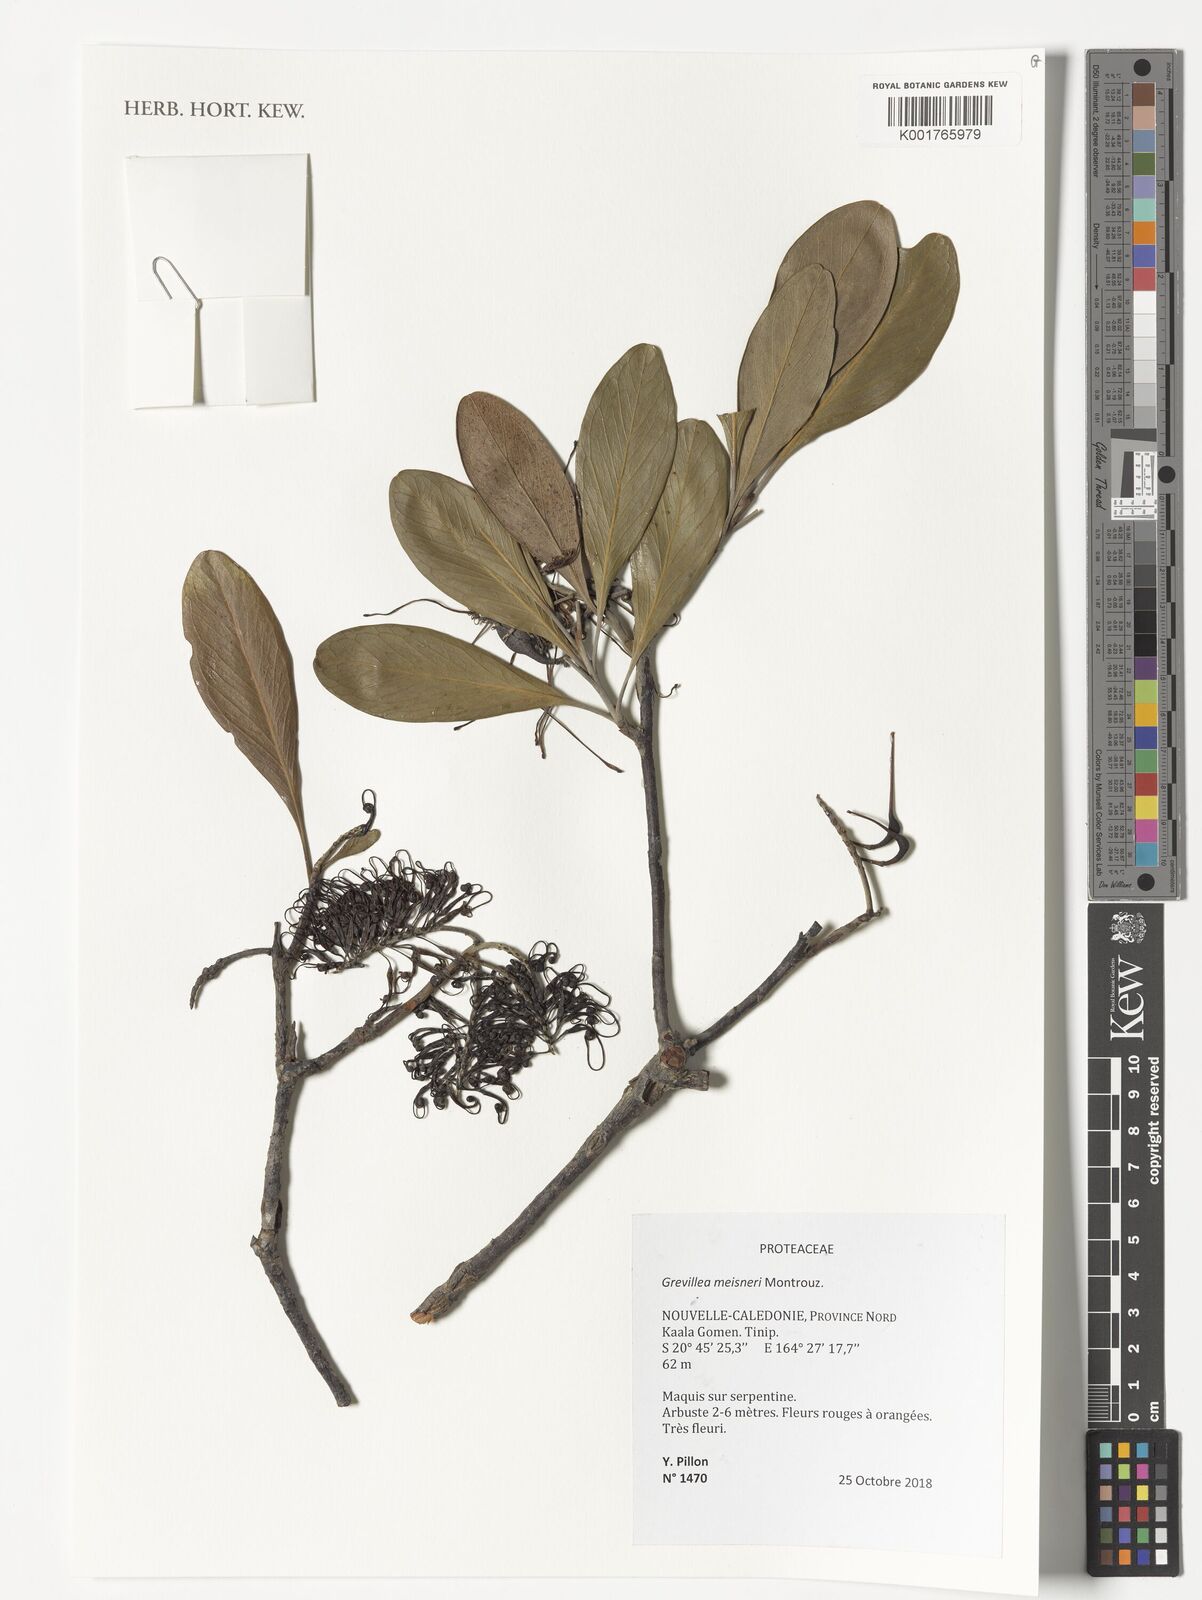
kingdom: Plantae
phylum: Tracheophyta
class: Magnoliopsida
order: Proteales
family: Proteaceae
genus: Grevillea
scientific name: Grevillea meisneri
